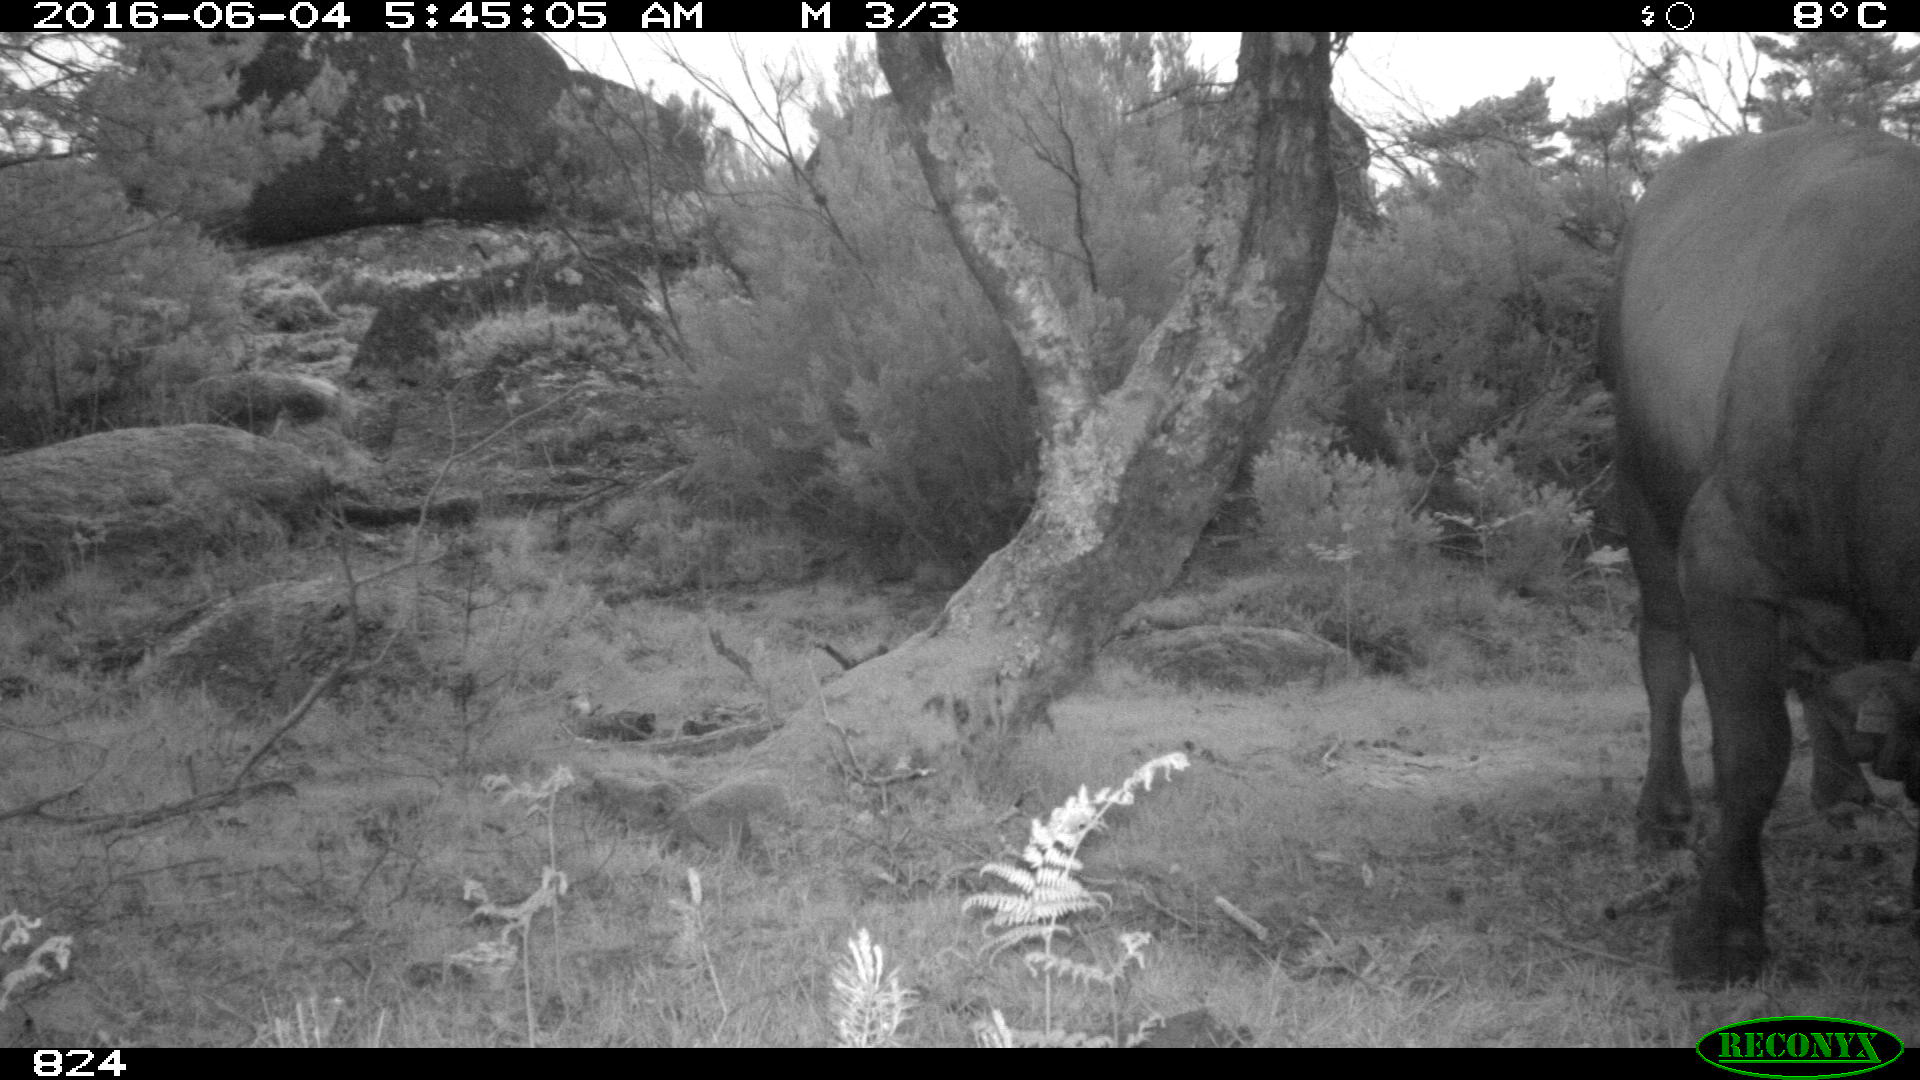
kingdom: Animalia
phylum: Chordata
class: Mammalia
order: Artiodactyla
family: Bovidae
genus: Bos
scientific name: Bos taurus
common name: Domesticated cattle
